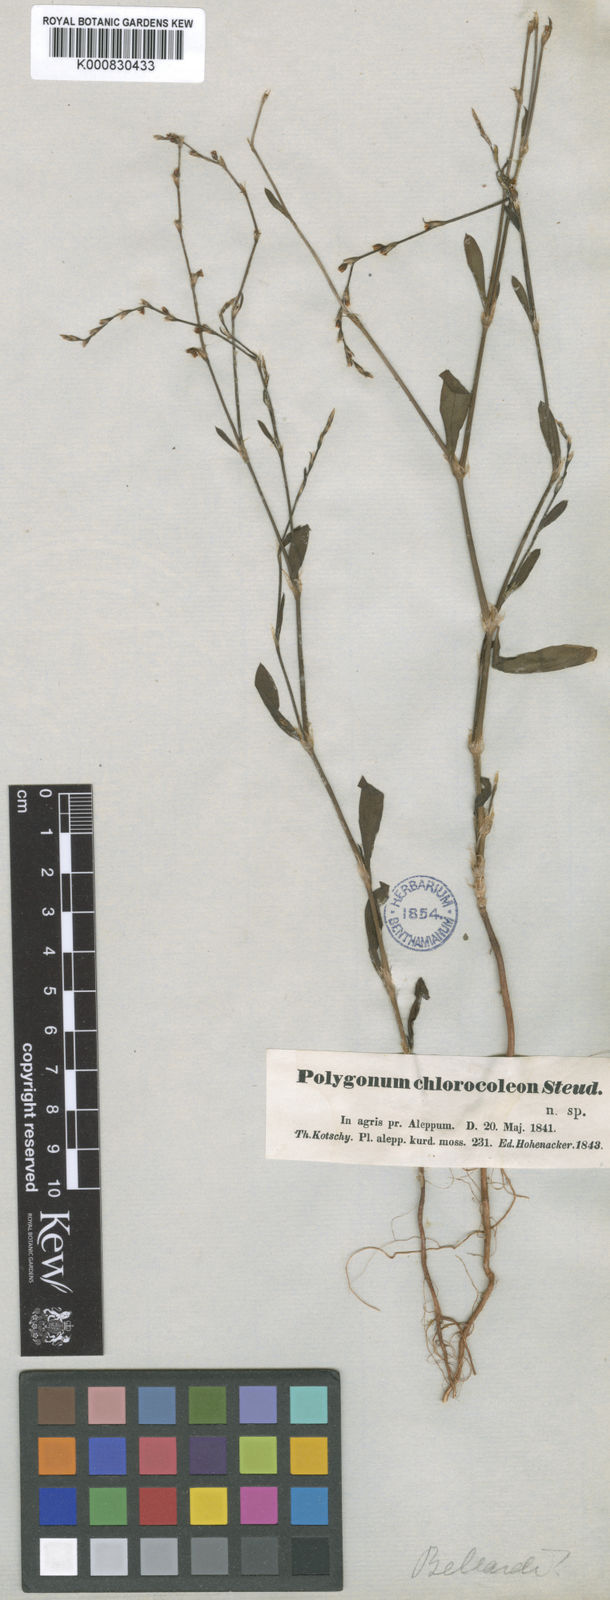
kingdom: Plantae
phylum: Tracheophyta
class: Magnoliopsida
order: Caryophyllales
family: Polygonaceae
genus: Polygonum
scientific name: Polygonum bellardii
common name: Narrowleaf knotweed
